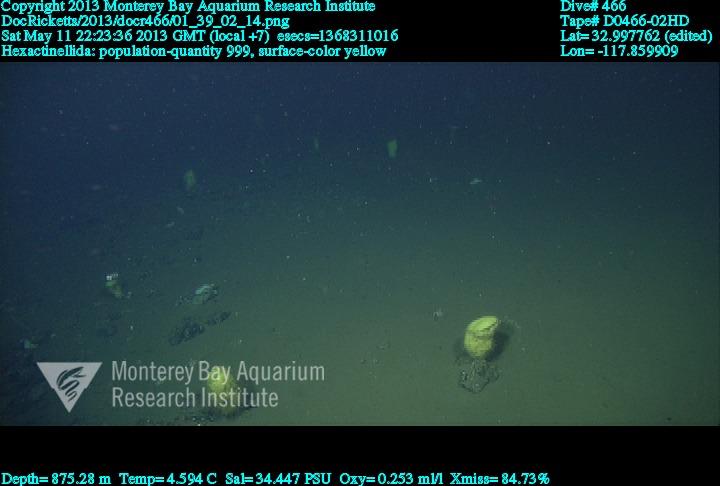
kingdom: Animalia
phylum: Porifera
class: Hexactinellida
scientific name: Hexactinellida
